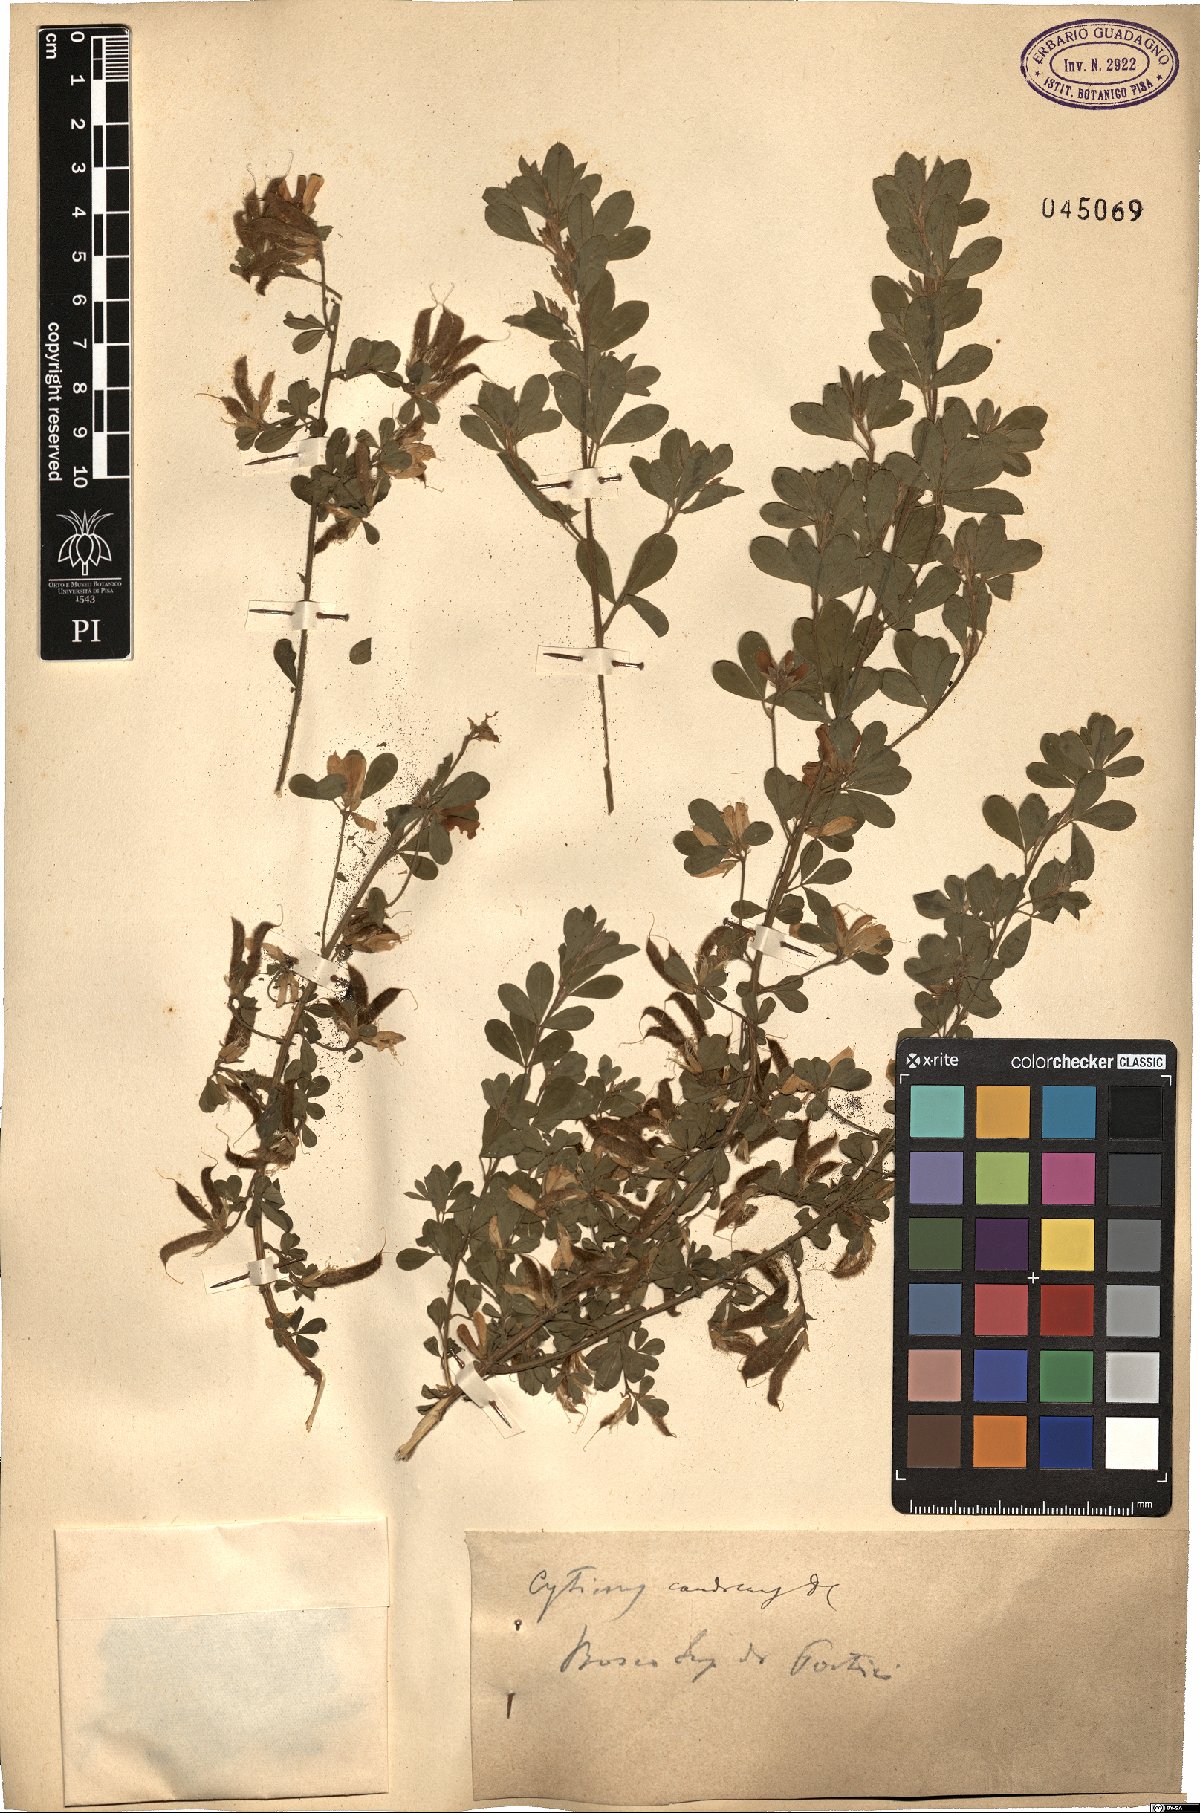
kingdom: Plantae
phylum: Tracheophyta
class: Magnoliopsida
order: Fabales
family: Fabaceae
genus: Genista
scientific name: Genista monspessulana
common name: Montpellier broom
